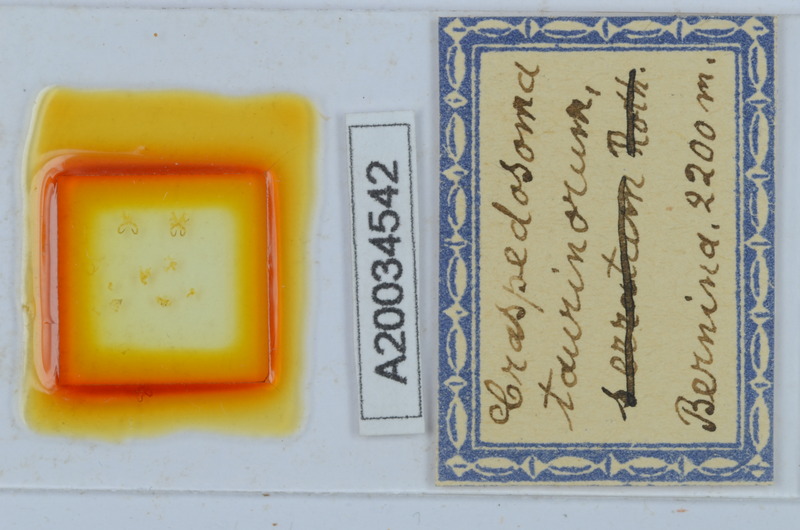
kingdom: Animalia
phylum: Arthropoda
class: Diplopoda
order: Chordeumatida
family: Craspedosomatidae
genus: Craspedosoma
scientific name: Craspedosoma taurinorum
